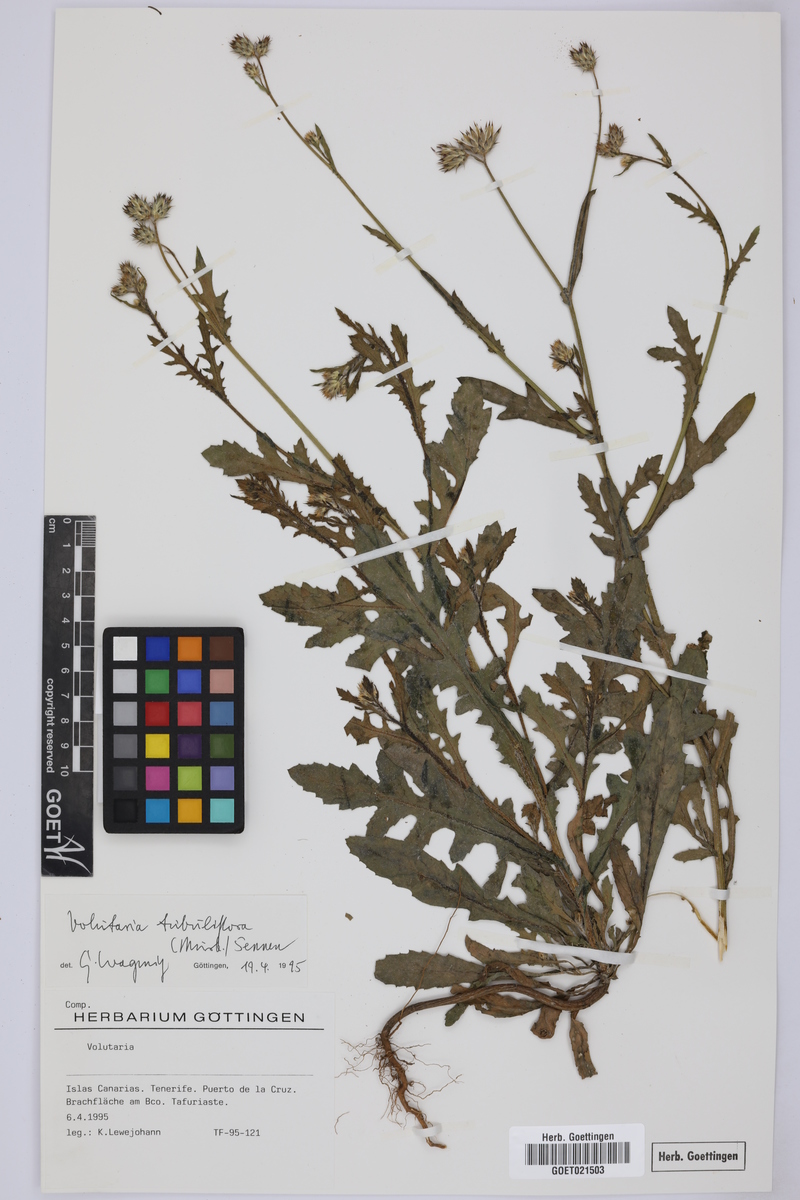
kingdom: Plantae
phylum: Tracheophyta
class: Magnoliopsida
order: Asterales
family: Asteraceae
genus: Volutaria
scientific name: Volutaria tubuliflora
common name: Desert knapweed
